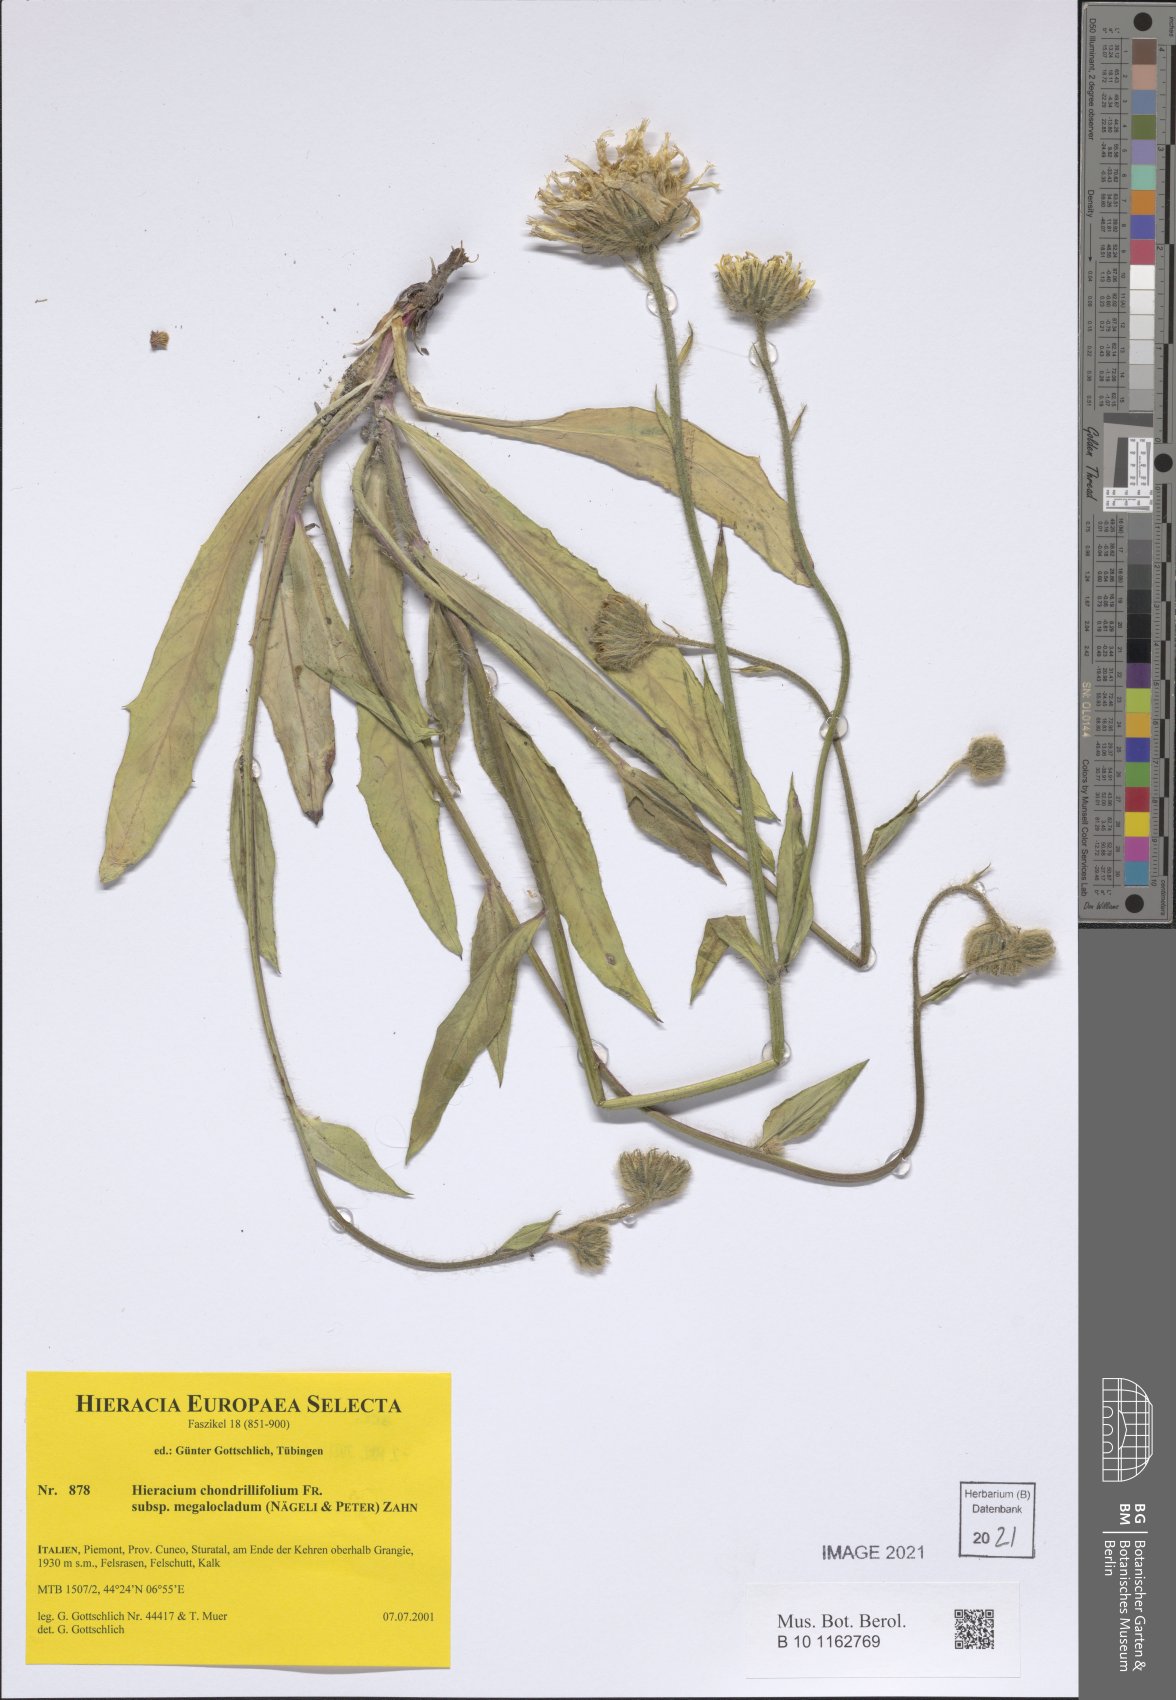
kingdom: Plantae
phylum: Tracheophyta
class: Magnoliopsida
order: Asterales
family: Asteraceae
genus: Hieracium
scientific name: Hieracium subspeciosum
